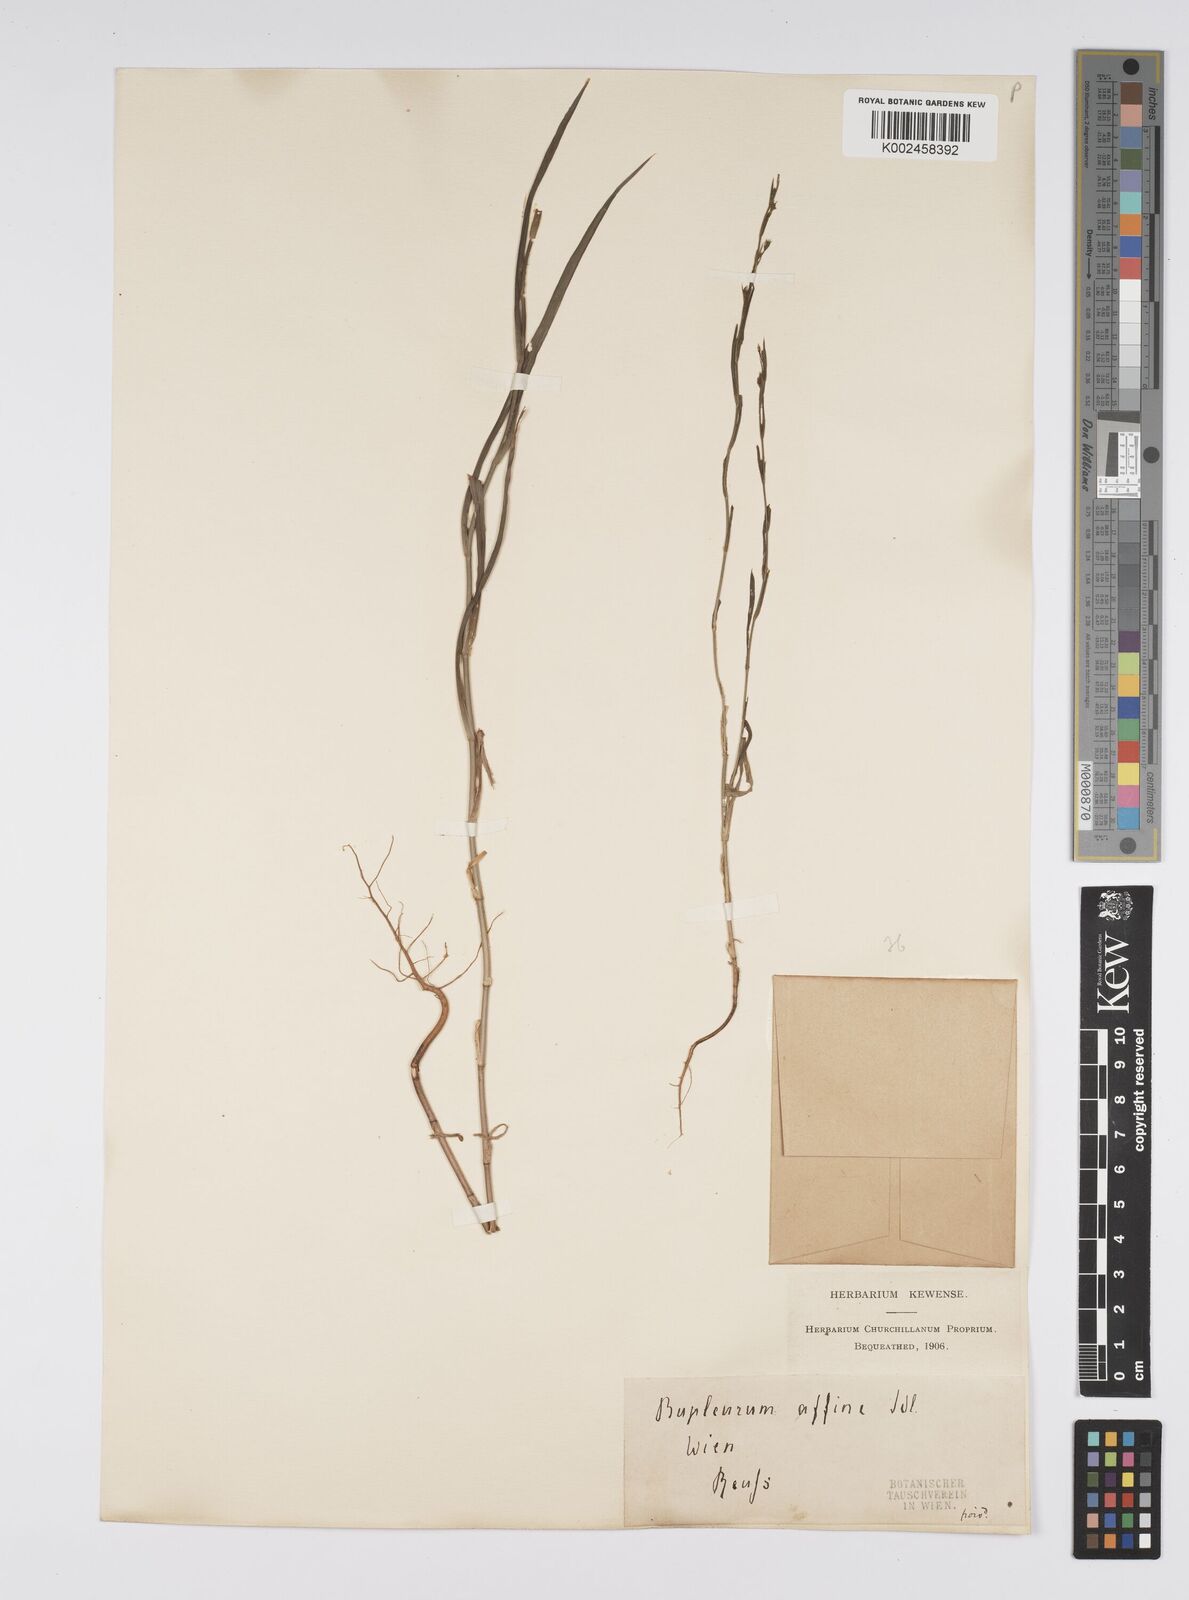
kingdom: Plantae
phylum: Tracheophyta
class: Magnoliopsida
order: Apiales
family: Apiaceae
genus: Bupleurum
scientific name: Bupleurum affine
